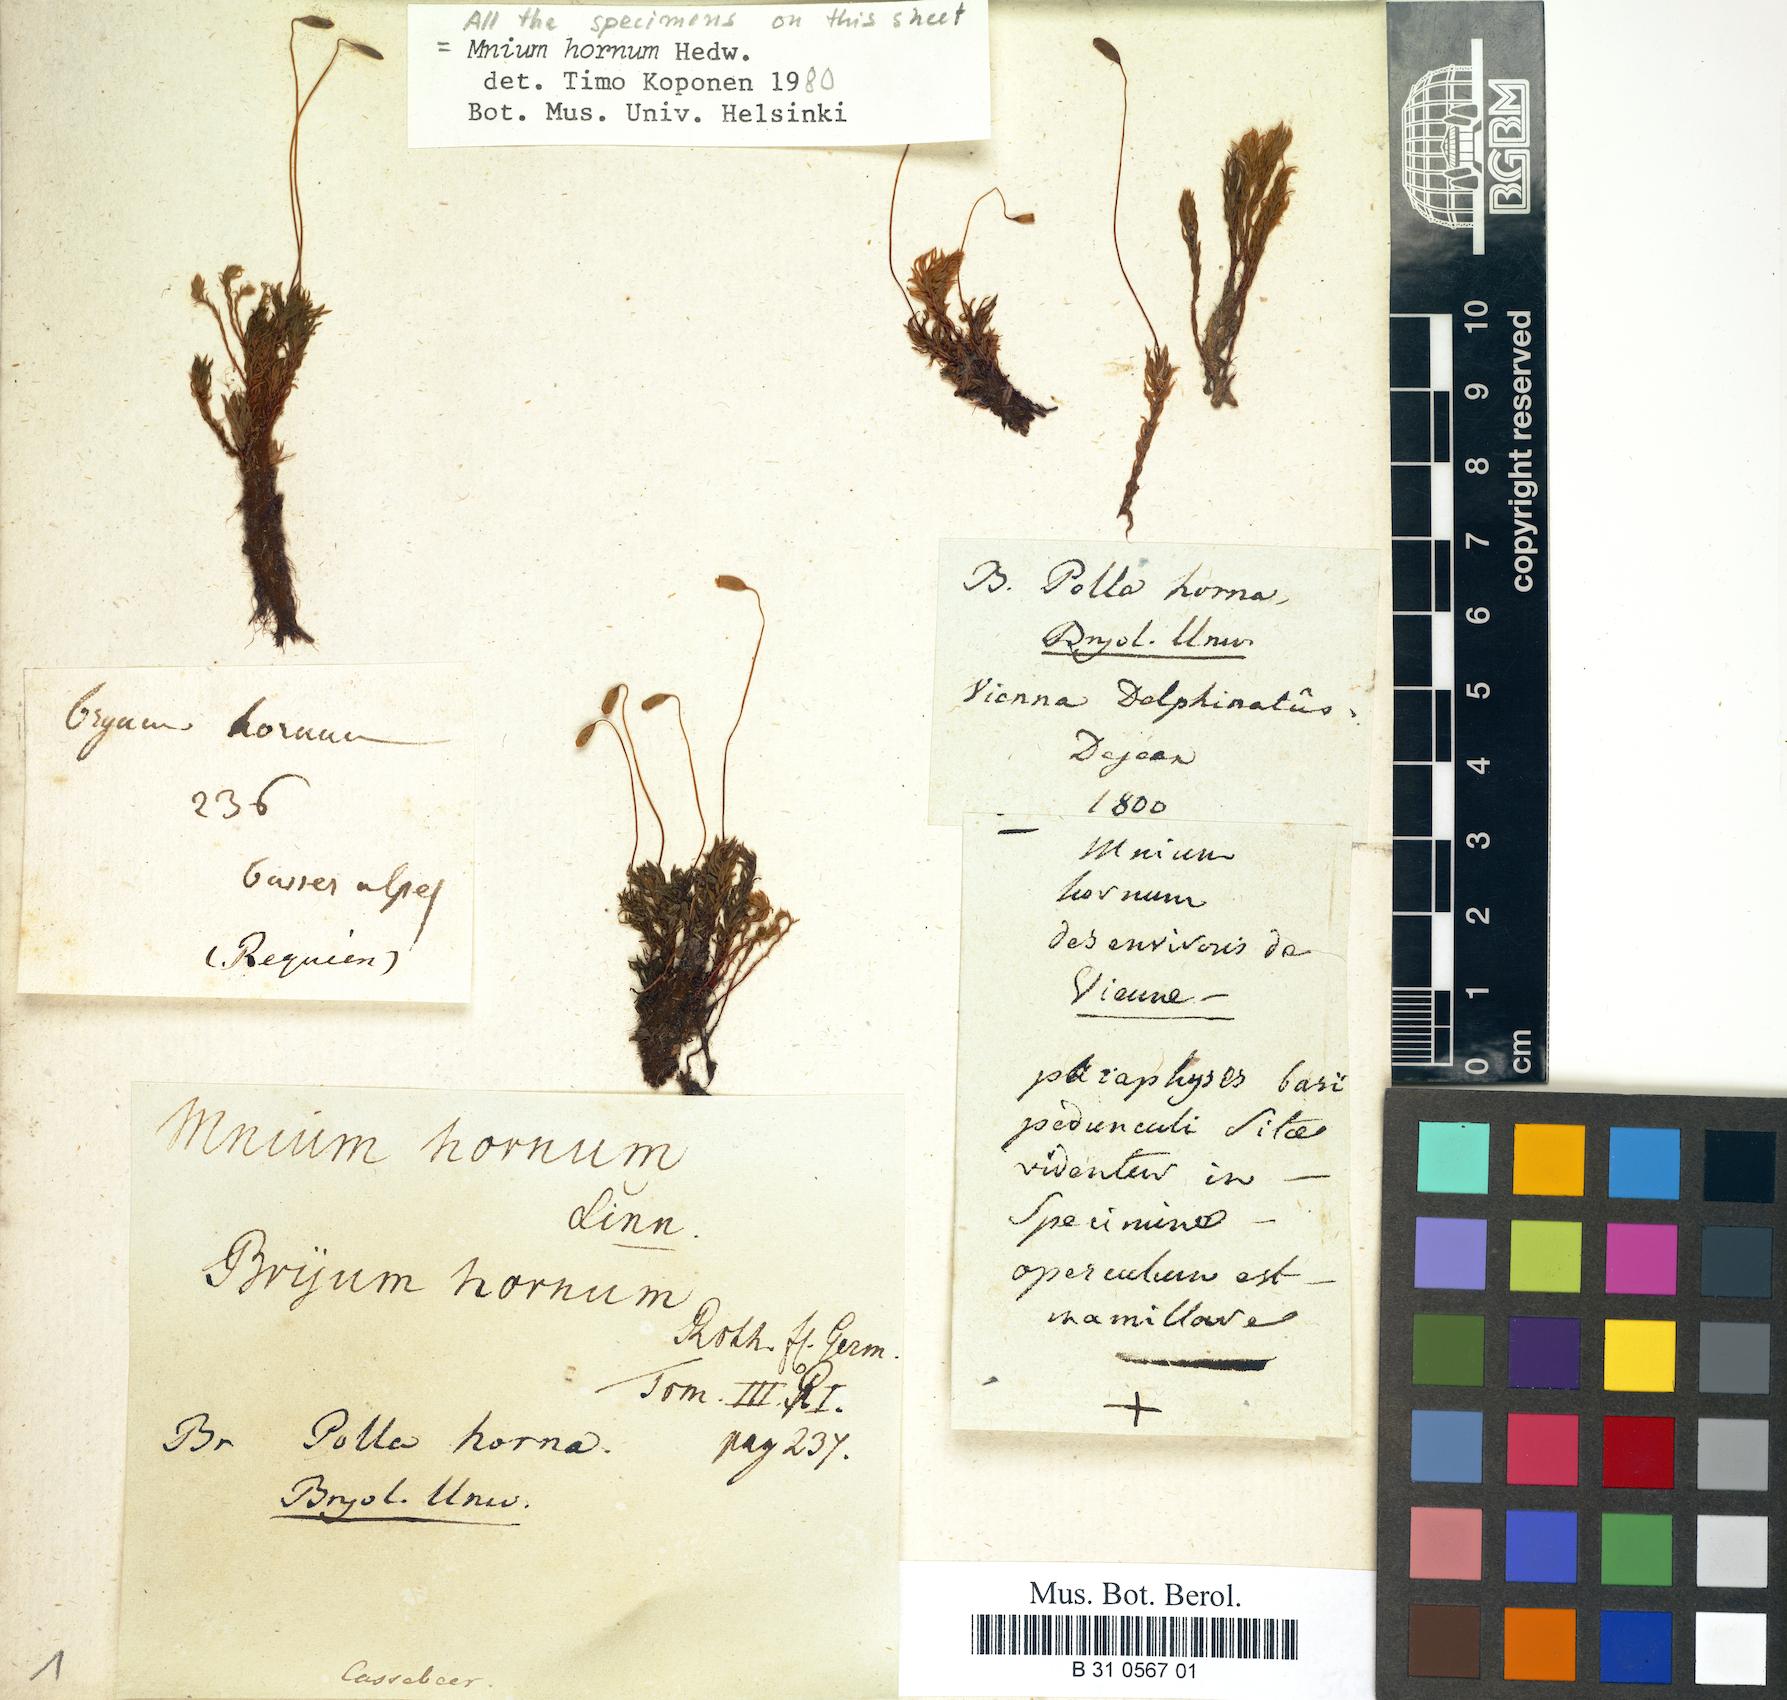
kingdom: Plantae
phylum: Bryophyta
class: Bryopsida
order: Bryales
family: Mniaceae
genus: Mnium
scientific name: Mnium hornum
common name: Swan's-neck leafy moss
